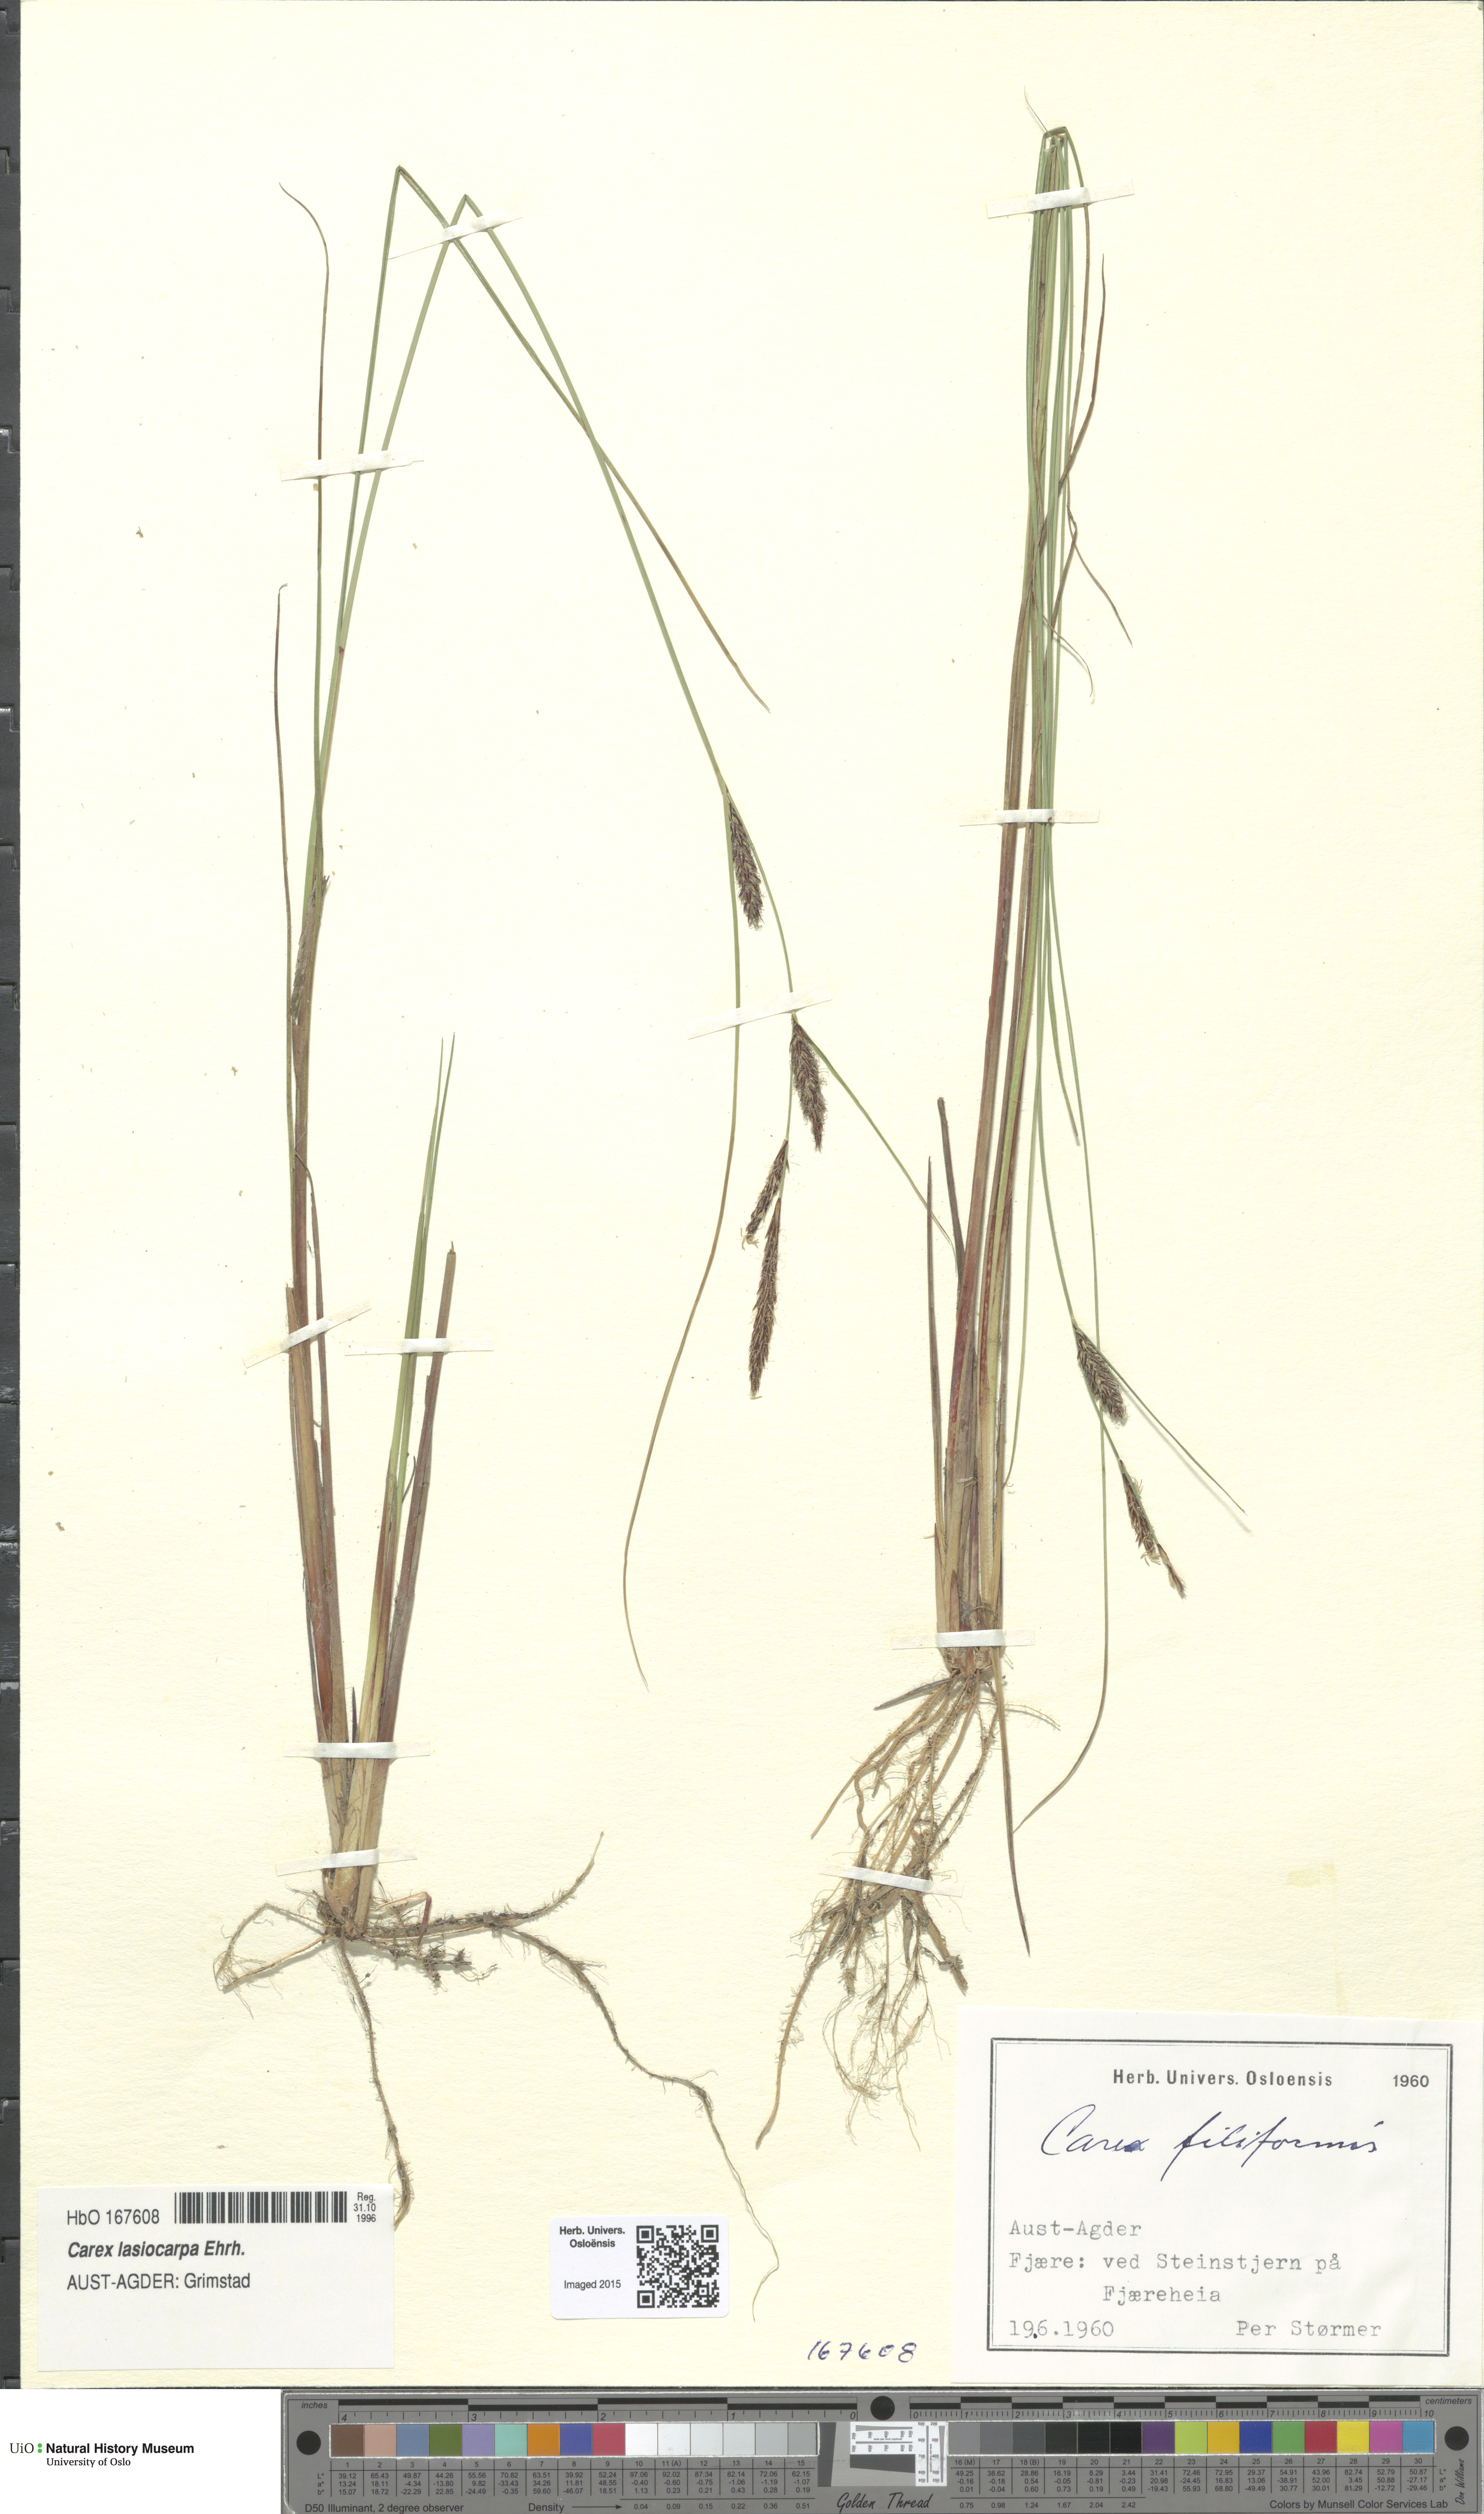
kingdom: Plantae
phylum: Tracheophyta
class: Liliopsida
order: Poales
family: Cyperaceae
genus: Carex
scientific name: Carex montana
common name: Soft-leaved sedge
